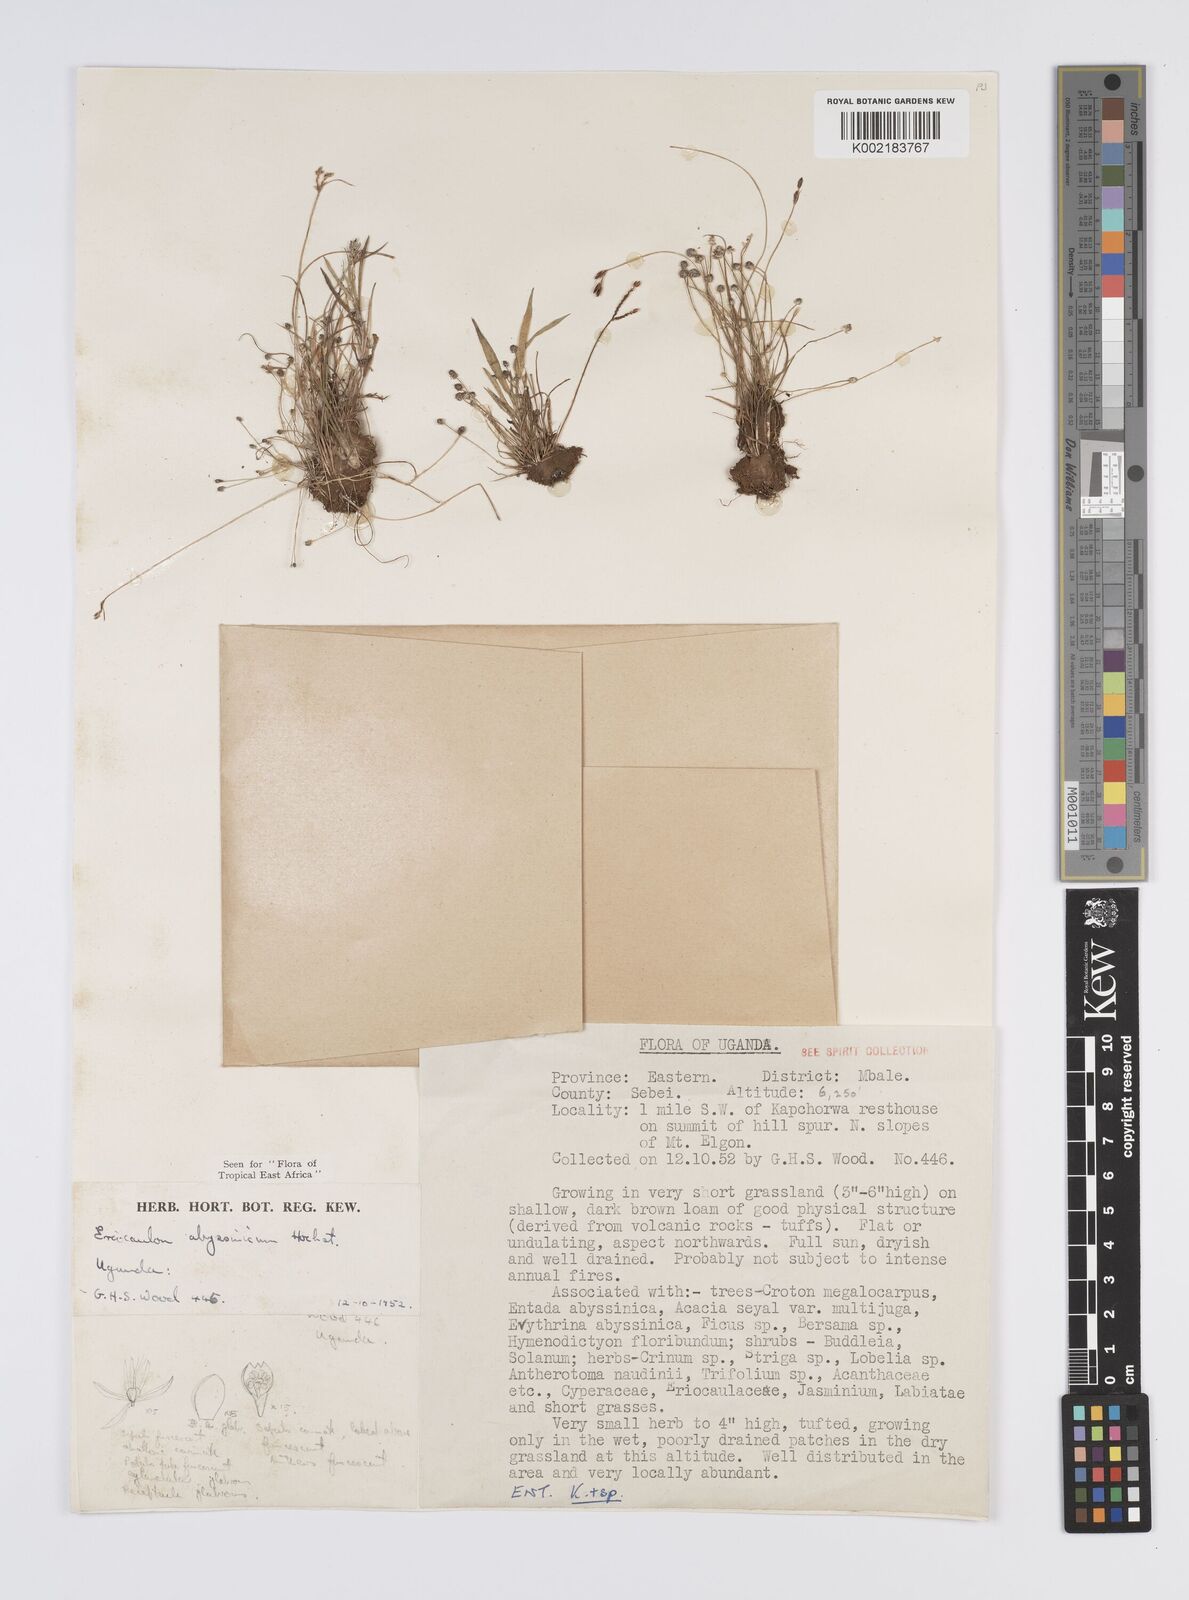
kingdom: Plantae
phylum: Tracheophyta
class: Liliopsida
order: Poales
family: Eriocaulaceae
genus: Eriocaulon
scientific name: Eriocaulon abyssinicum
